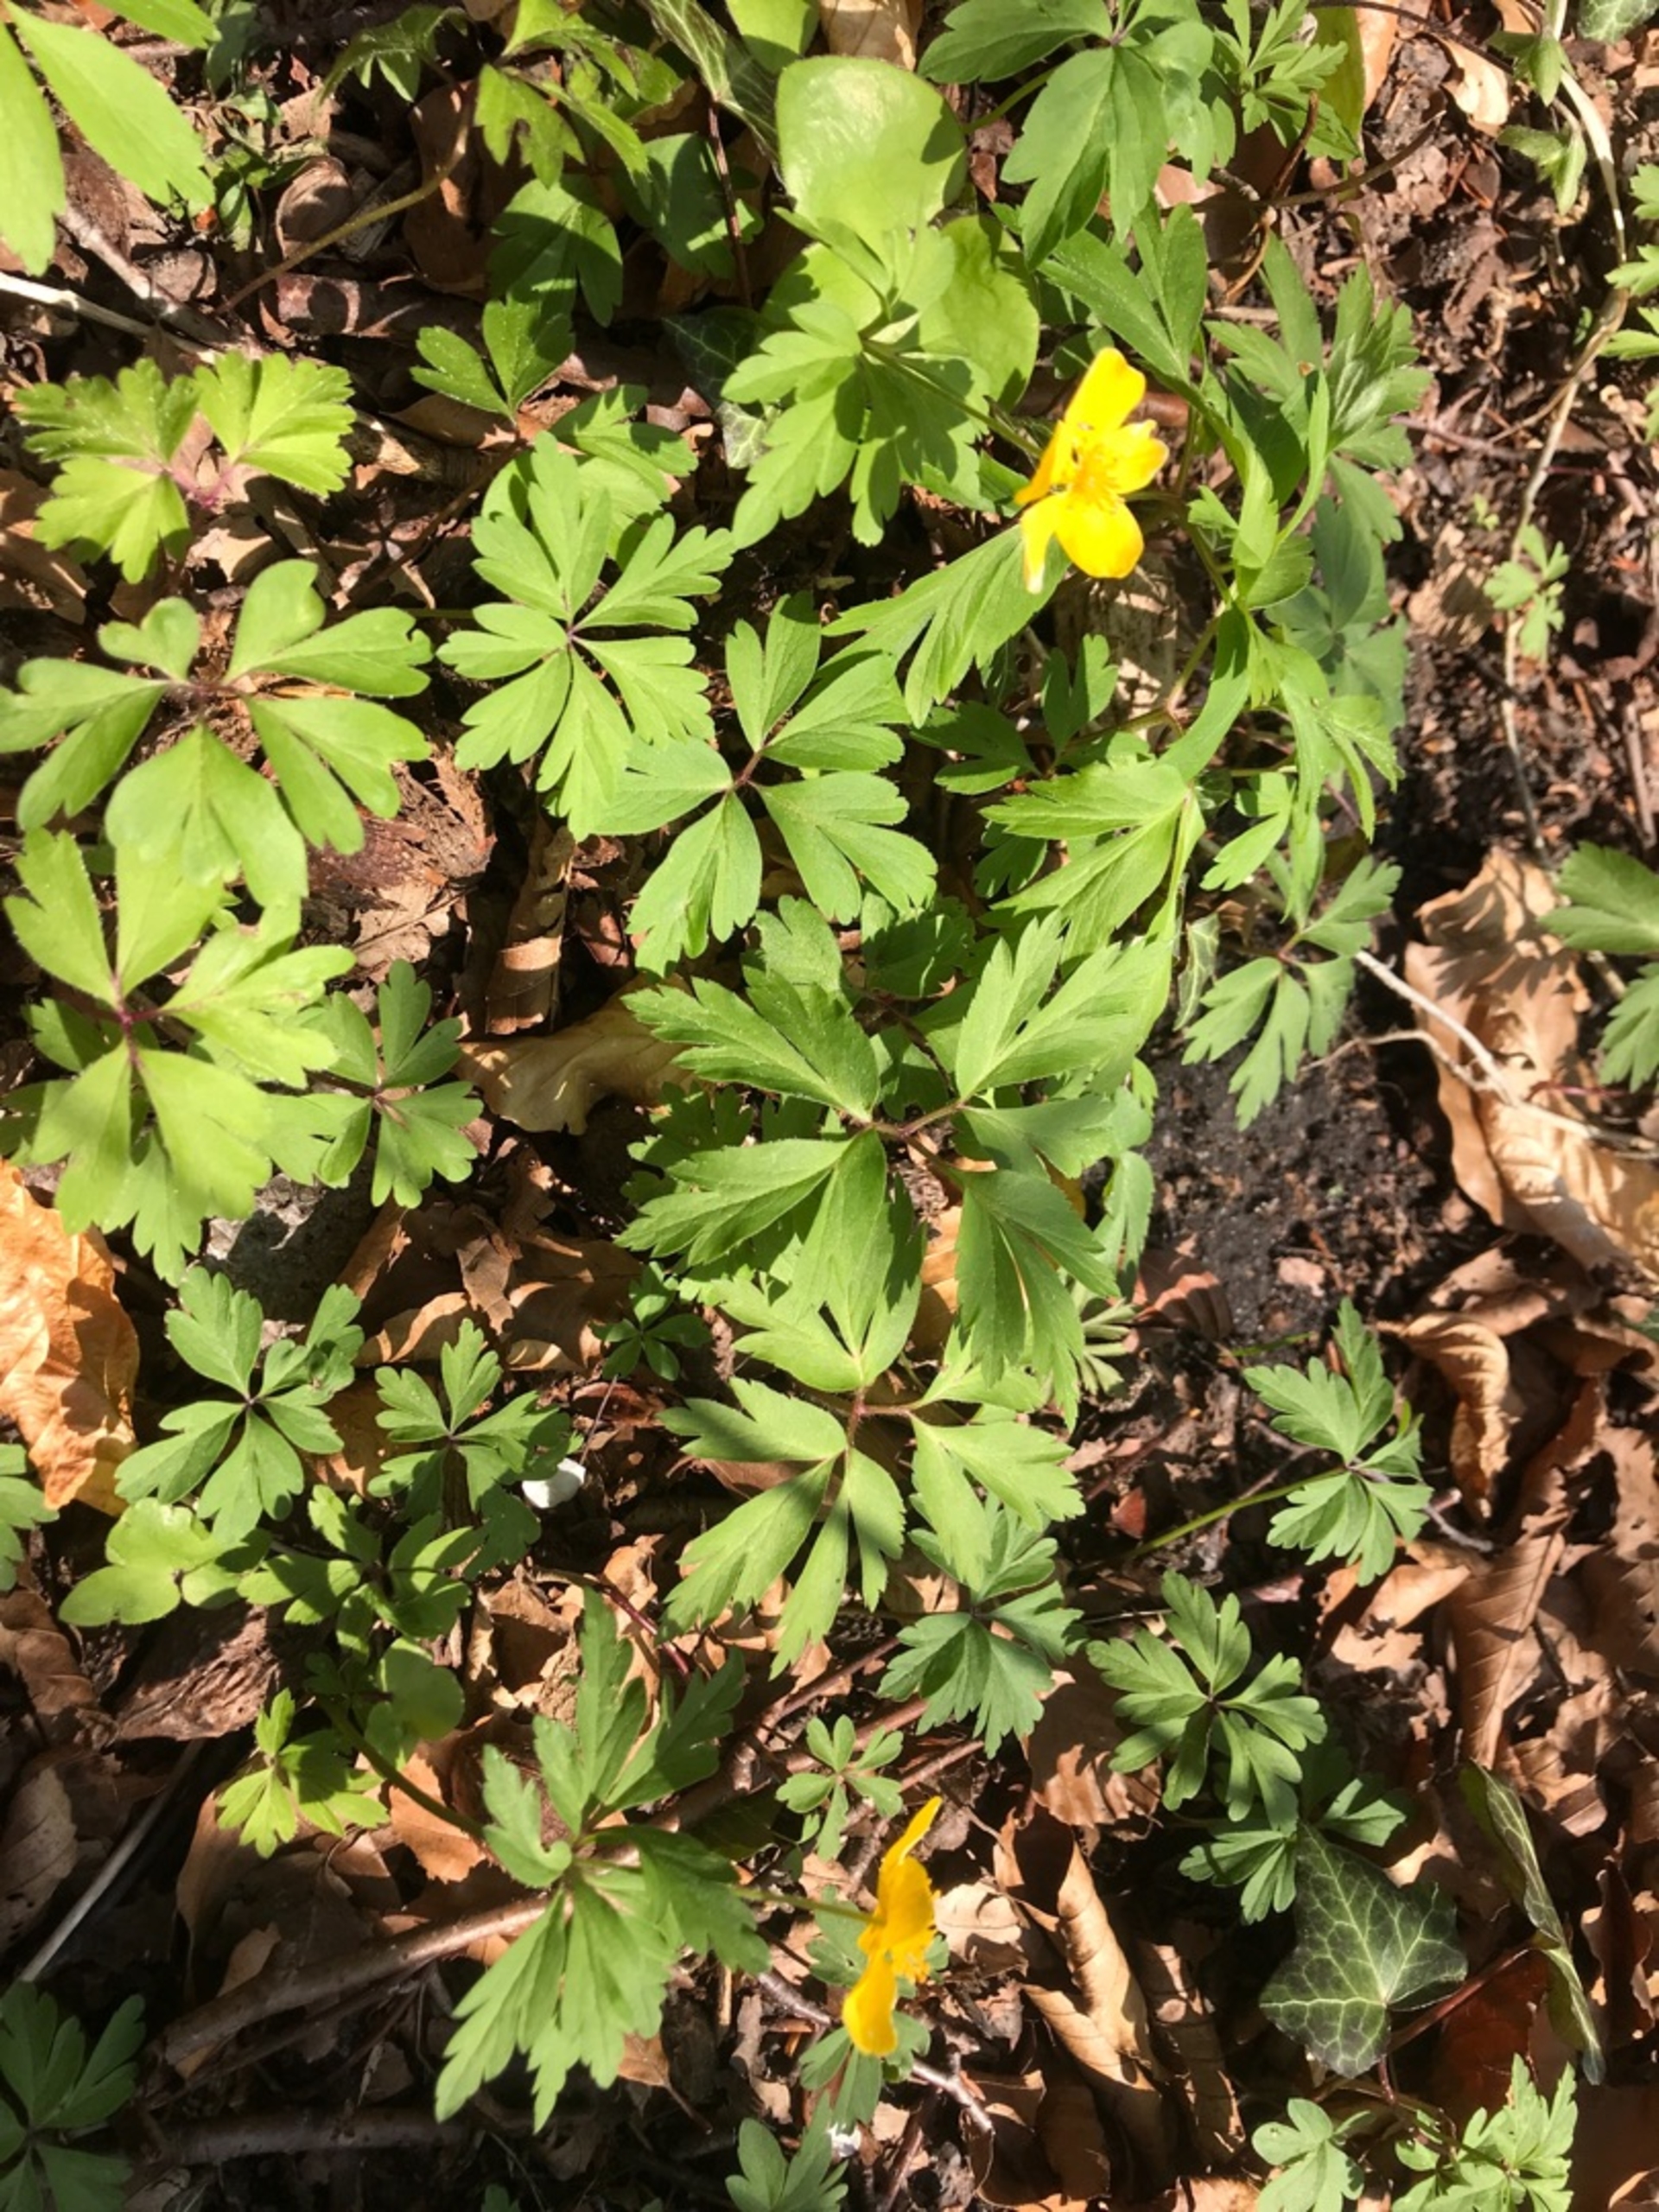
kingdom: Plantae
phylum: Tracheophyta
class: Magnoliopsida
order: Ranunculales
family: Ranunculaceae
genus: Anemone
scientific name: Anemone ranunculoides
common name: Gul anemone
